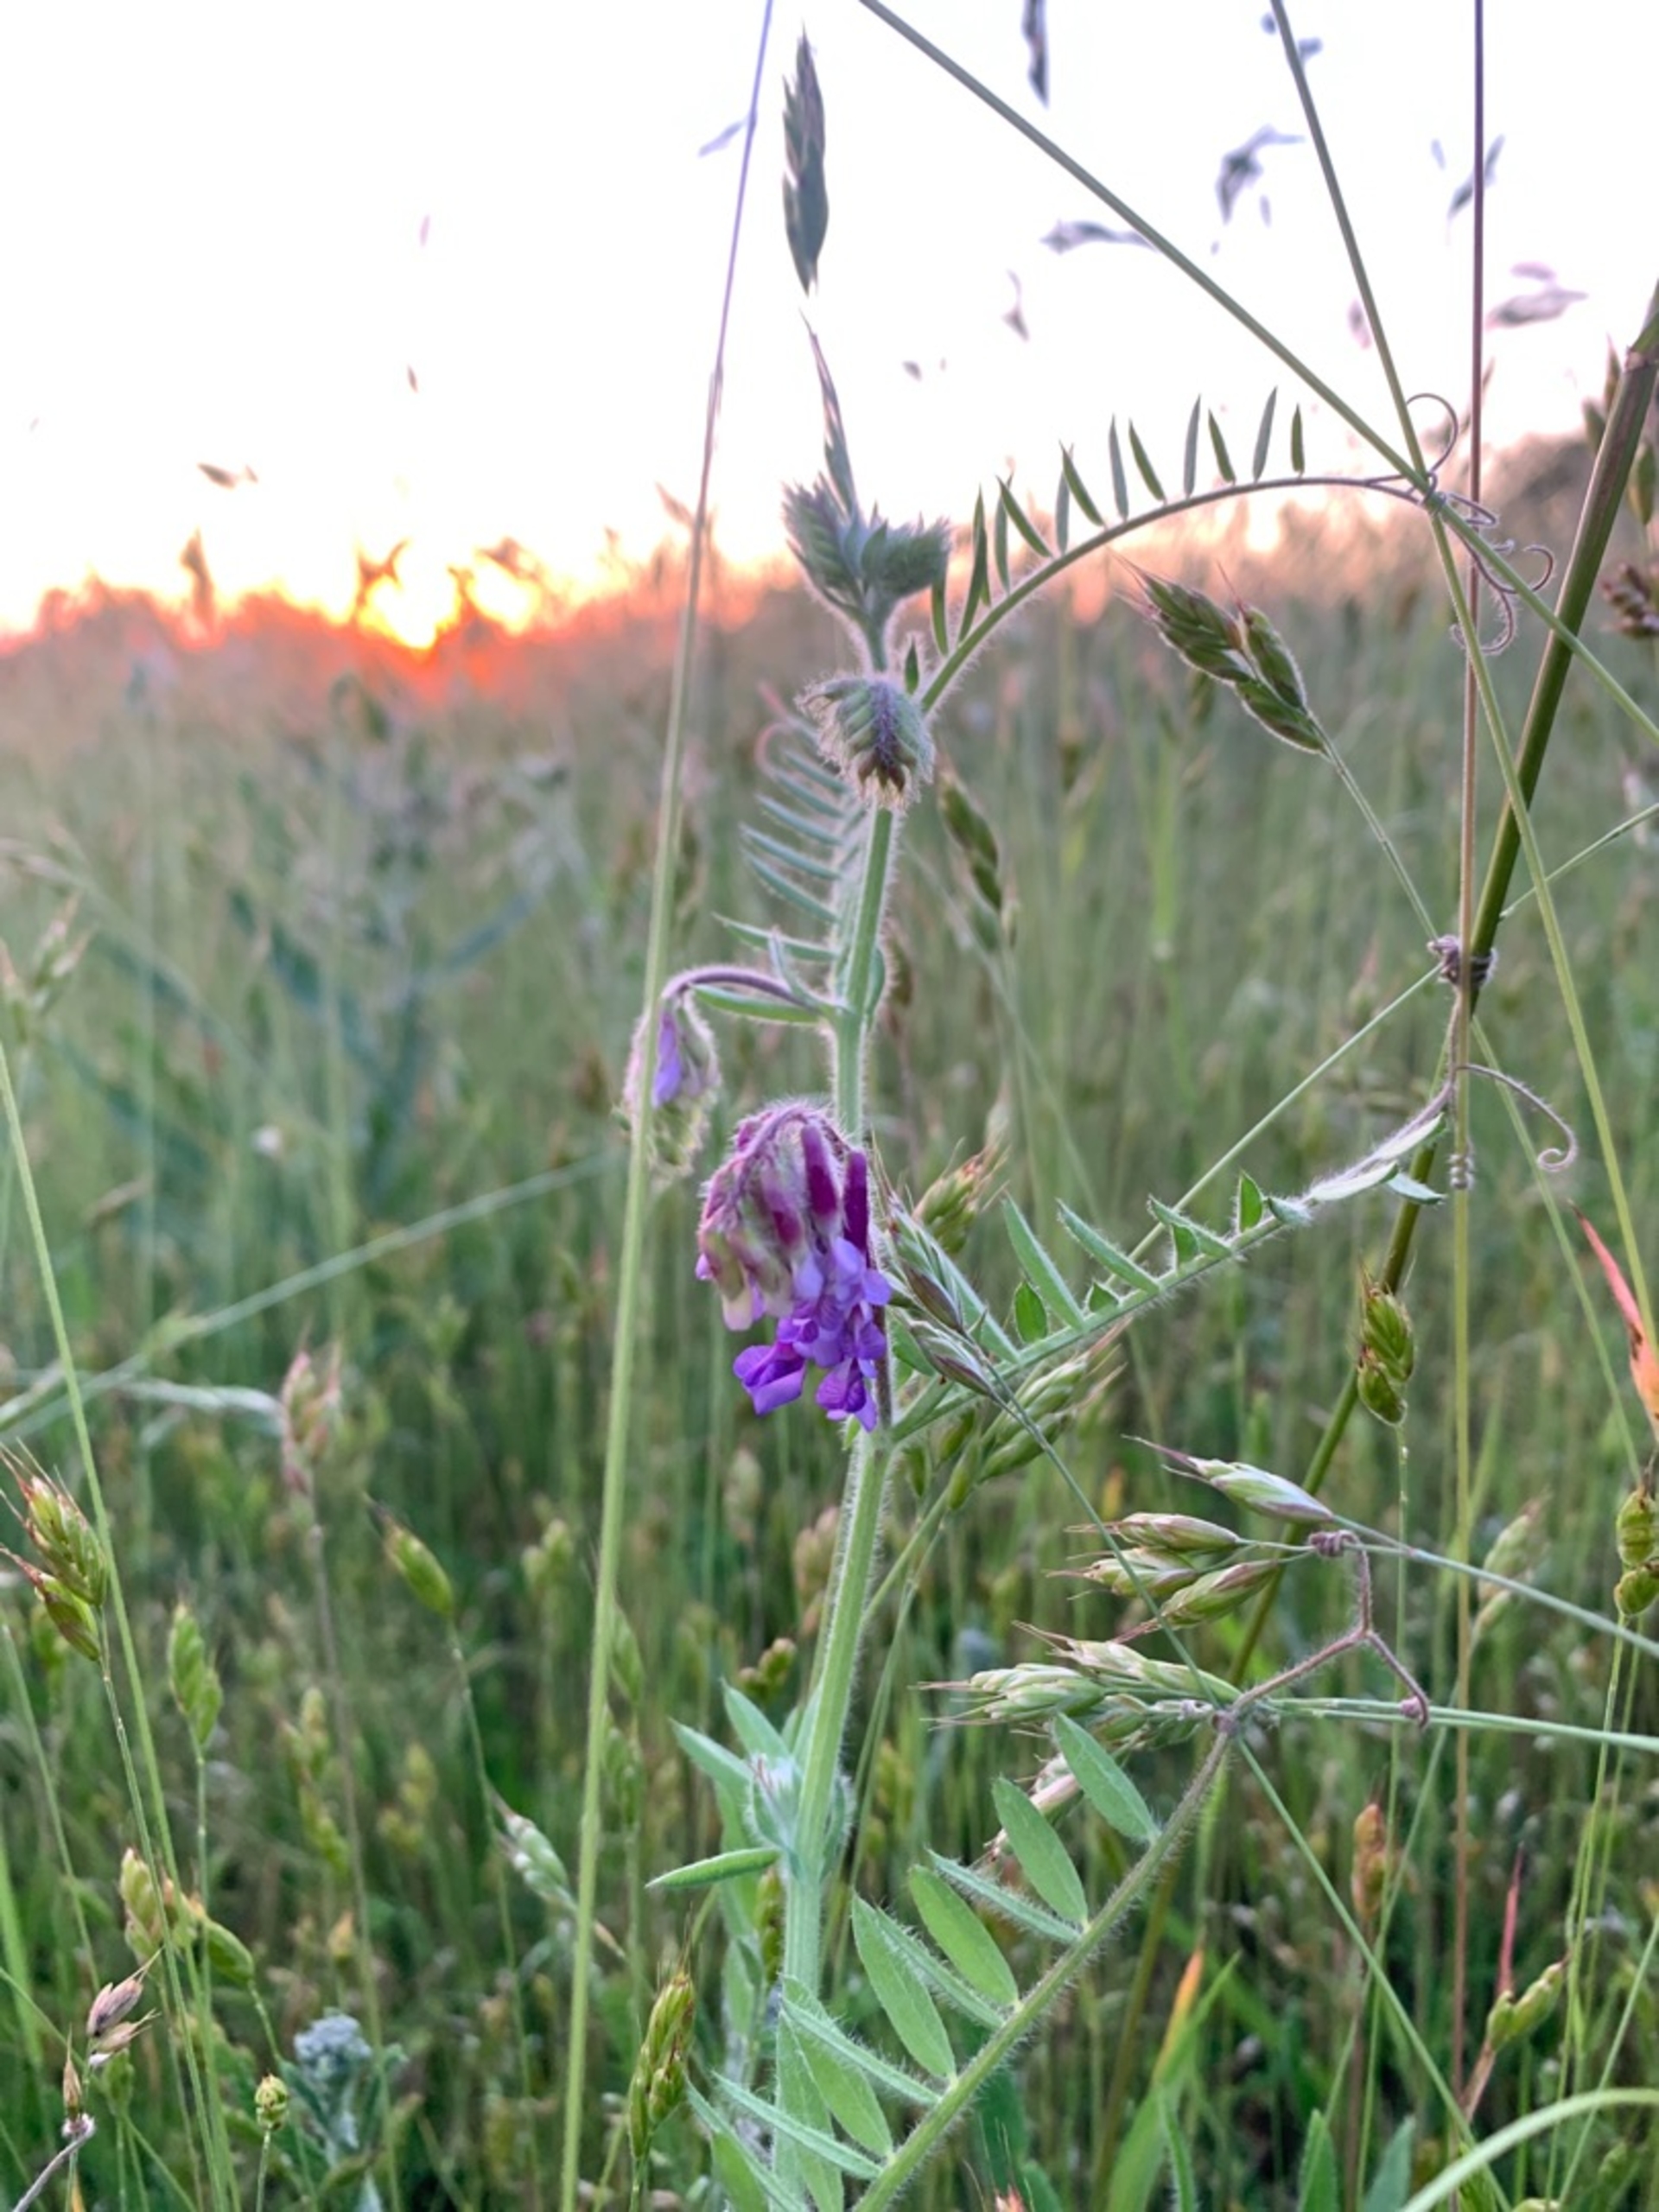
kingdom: Plantae
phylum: Tracheophyta
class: Magnoliopsida
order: Fabales
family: Fabaceae
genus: Vicia
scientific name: Vicia cracca
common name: Muse-vikke
